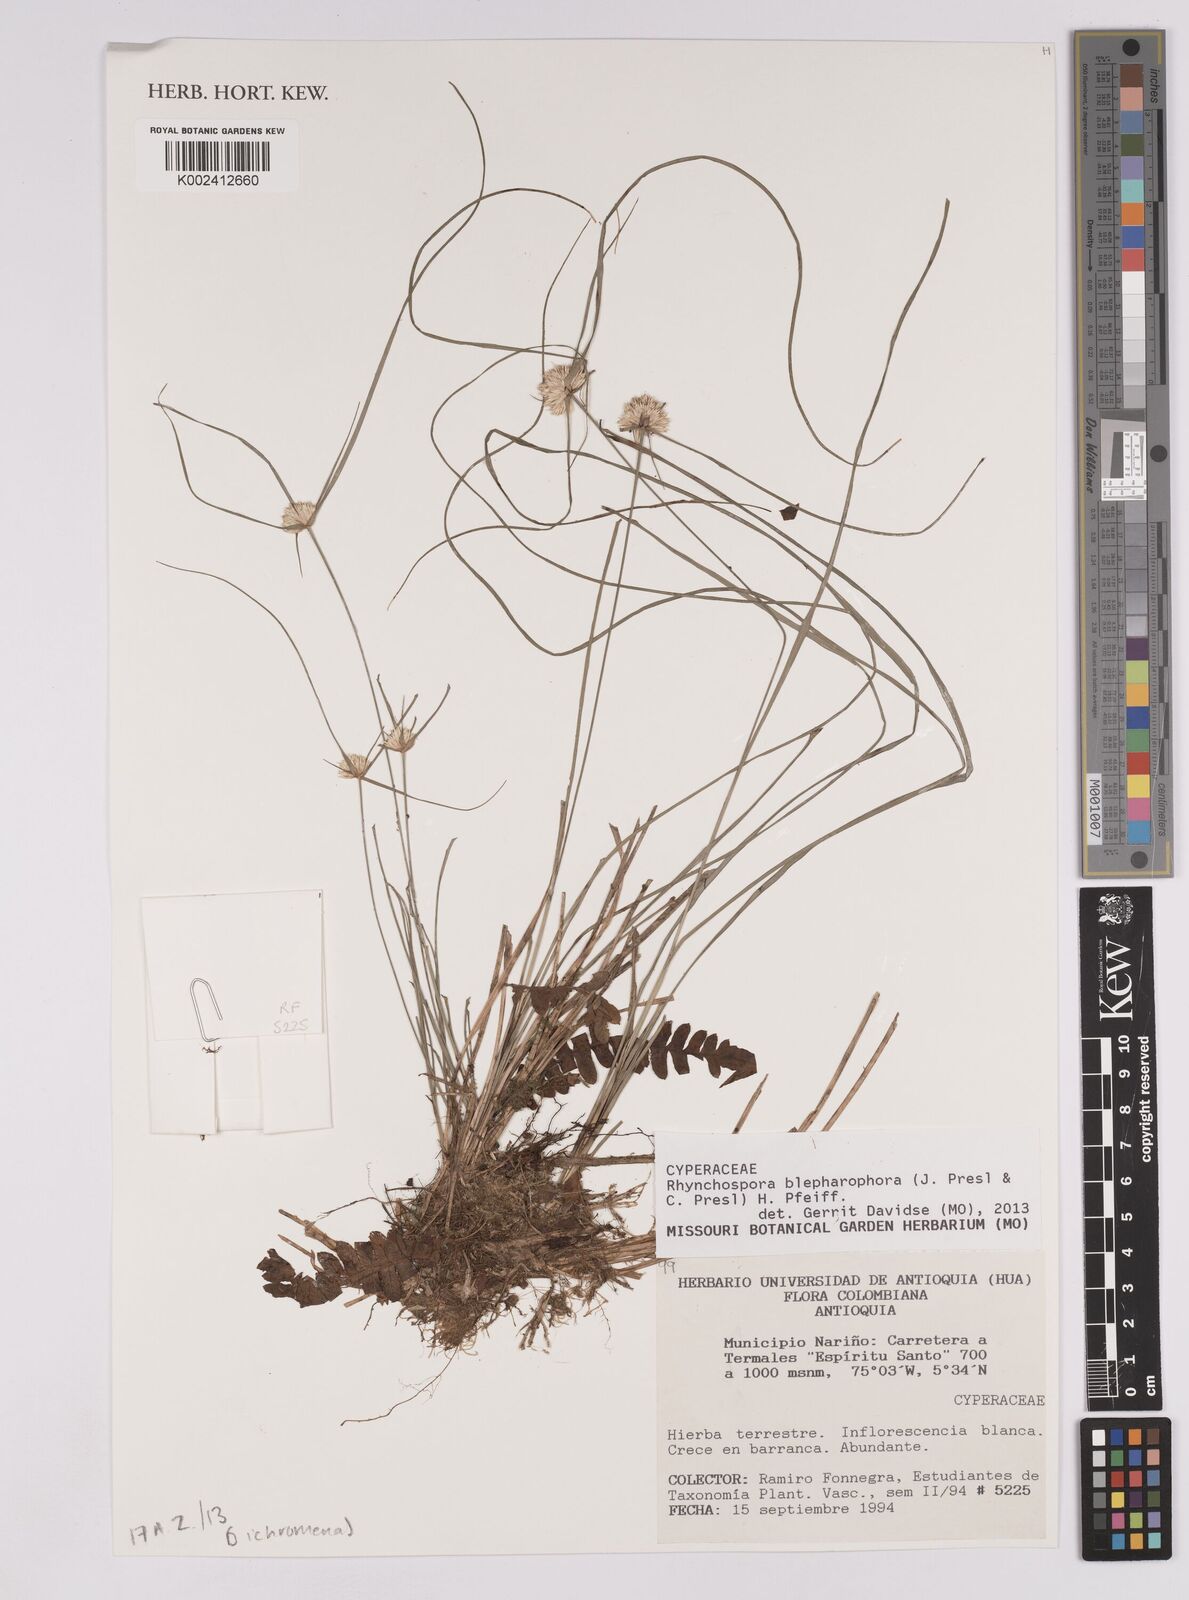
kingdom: Plantae
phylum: Tracheophyta
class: Liliopsida
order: Poales
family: Cyperaceae
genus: Rhynchospora
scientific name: Rhynchospora blepharophora
